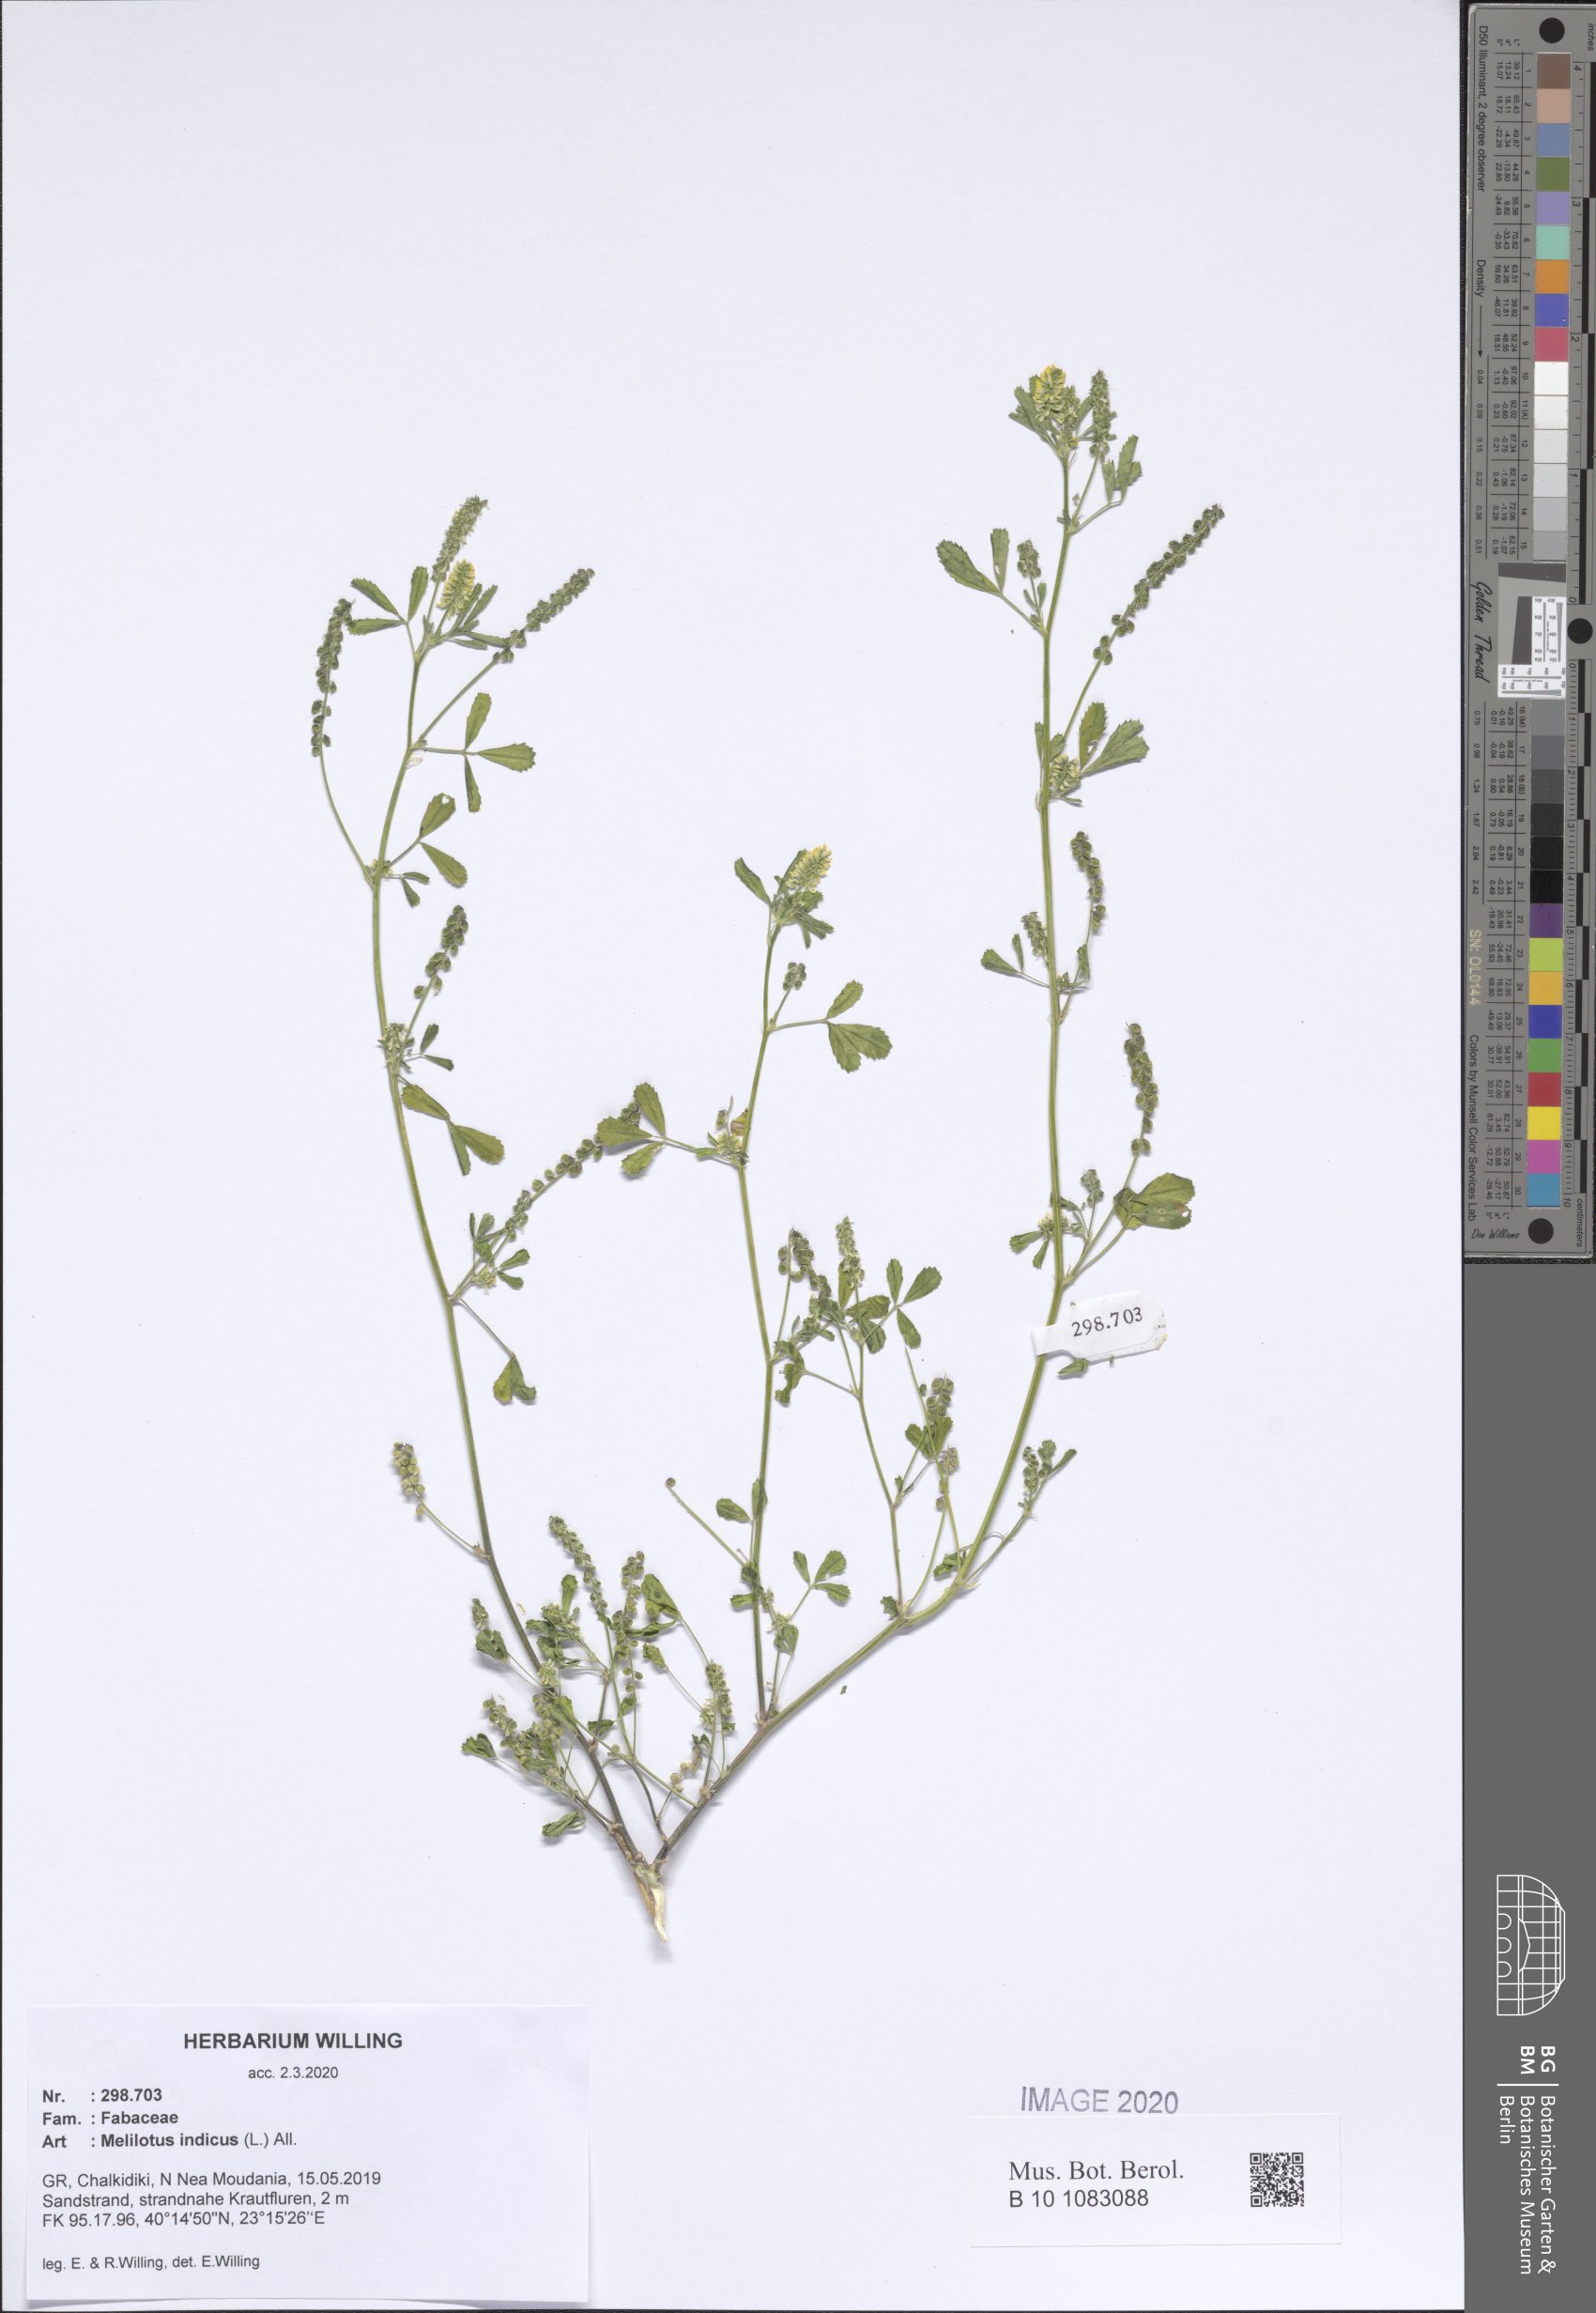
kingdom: Plantae
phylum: Tracheophyta
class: Magnoliopsida
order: Fabales
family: Fabaceae
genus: Melilotus
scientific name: Melilotus indicus
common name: Small melilot
